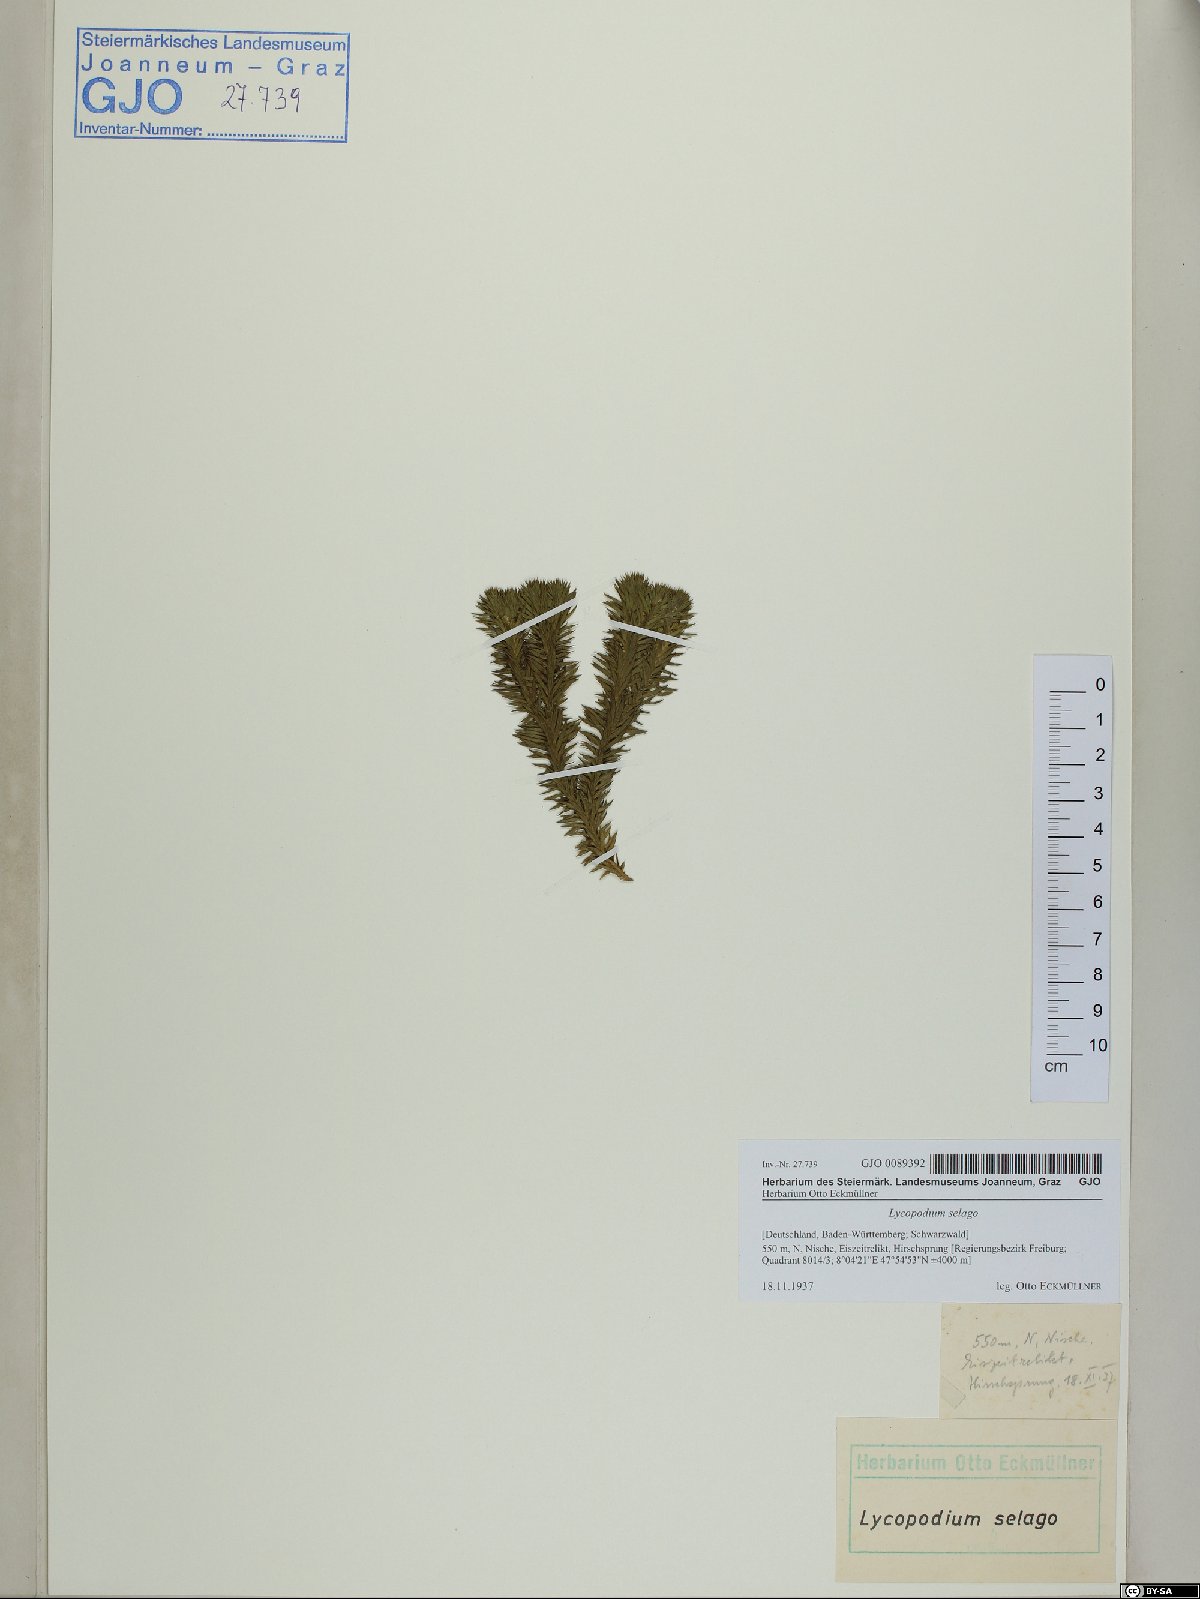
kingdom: Plantae
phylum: Tracheophyta
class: Lycopodiopsida
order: Lycopodiales
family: Lycopodiaceae
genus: Huperzia
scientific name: Huperzia selago
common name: Northern firmoss
